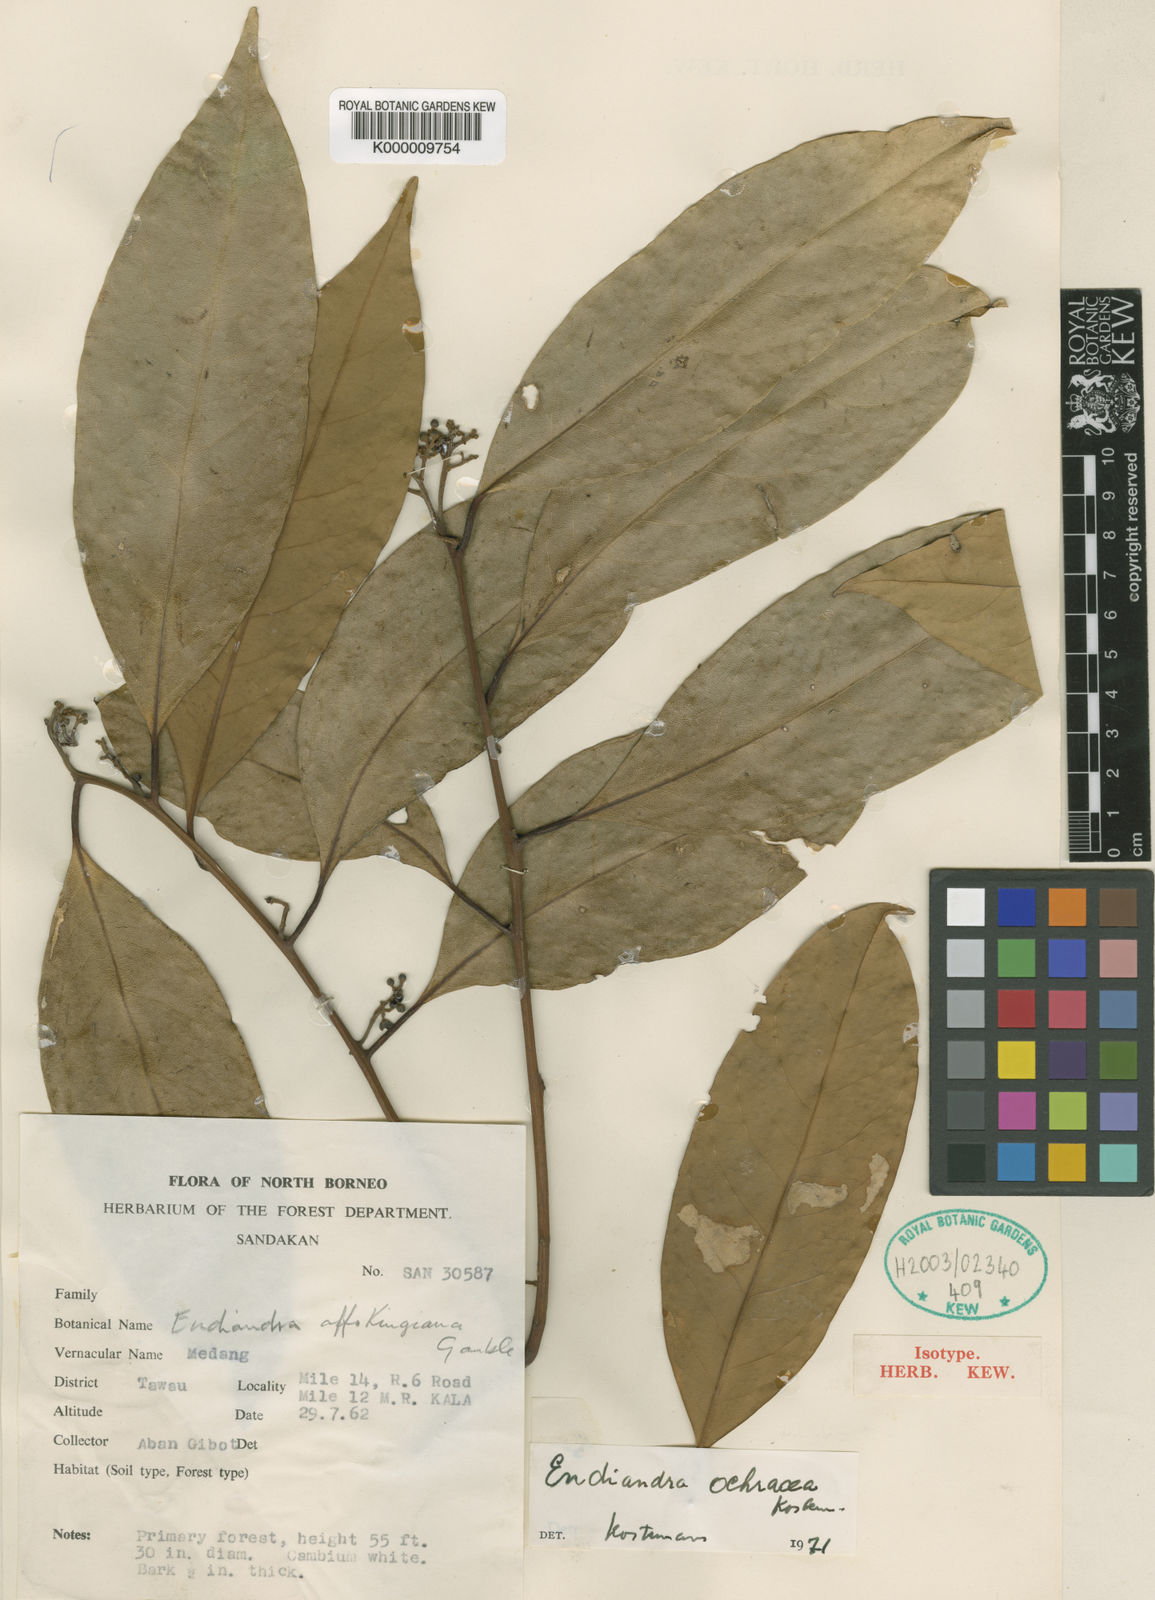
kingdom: Plantae
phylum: Tracheophyta
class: Magnoliopsida
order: Laurales
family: Lauraceae
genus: Endiandra
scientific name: Endiandra ochracea
